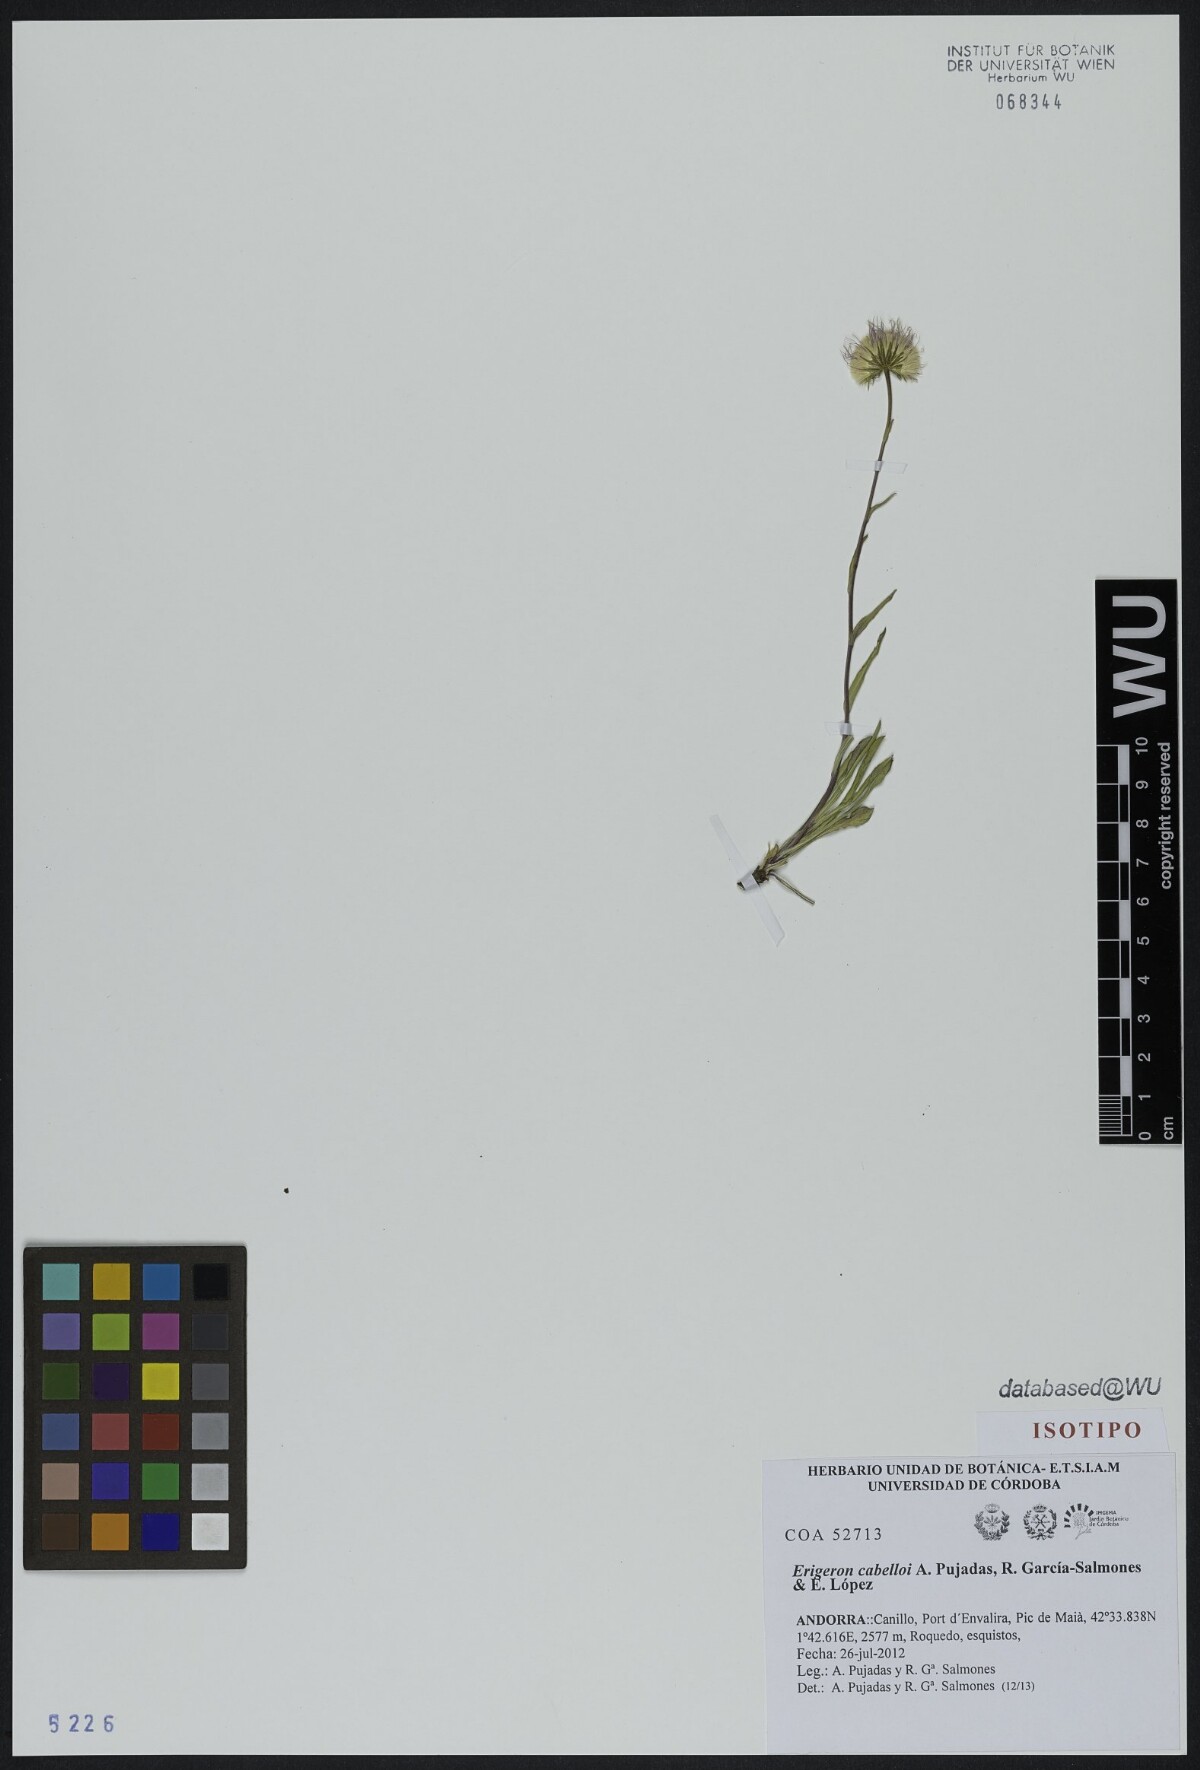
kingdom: Plantae
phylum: Tracheophyta
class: Magnoliopsida
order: Asterales
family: Asteraceae
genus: Erigeron
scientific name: Erigeron cabelloi
